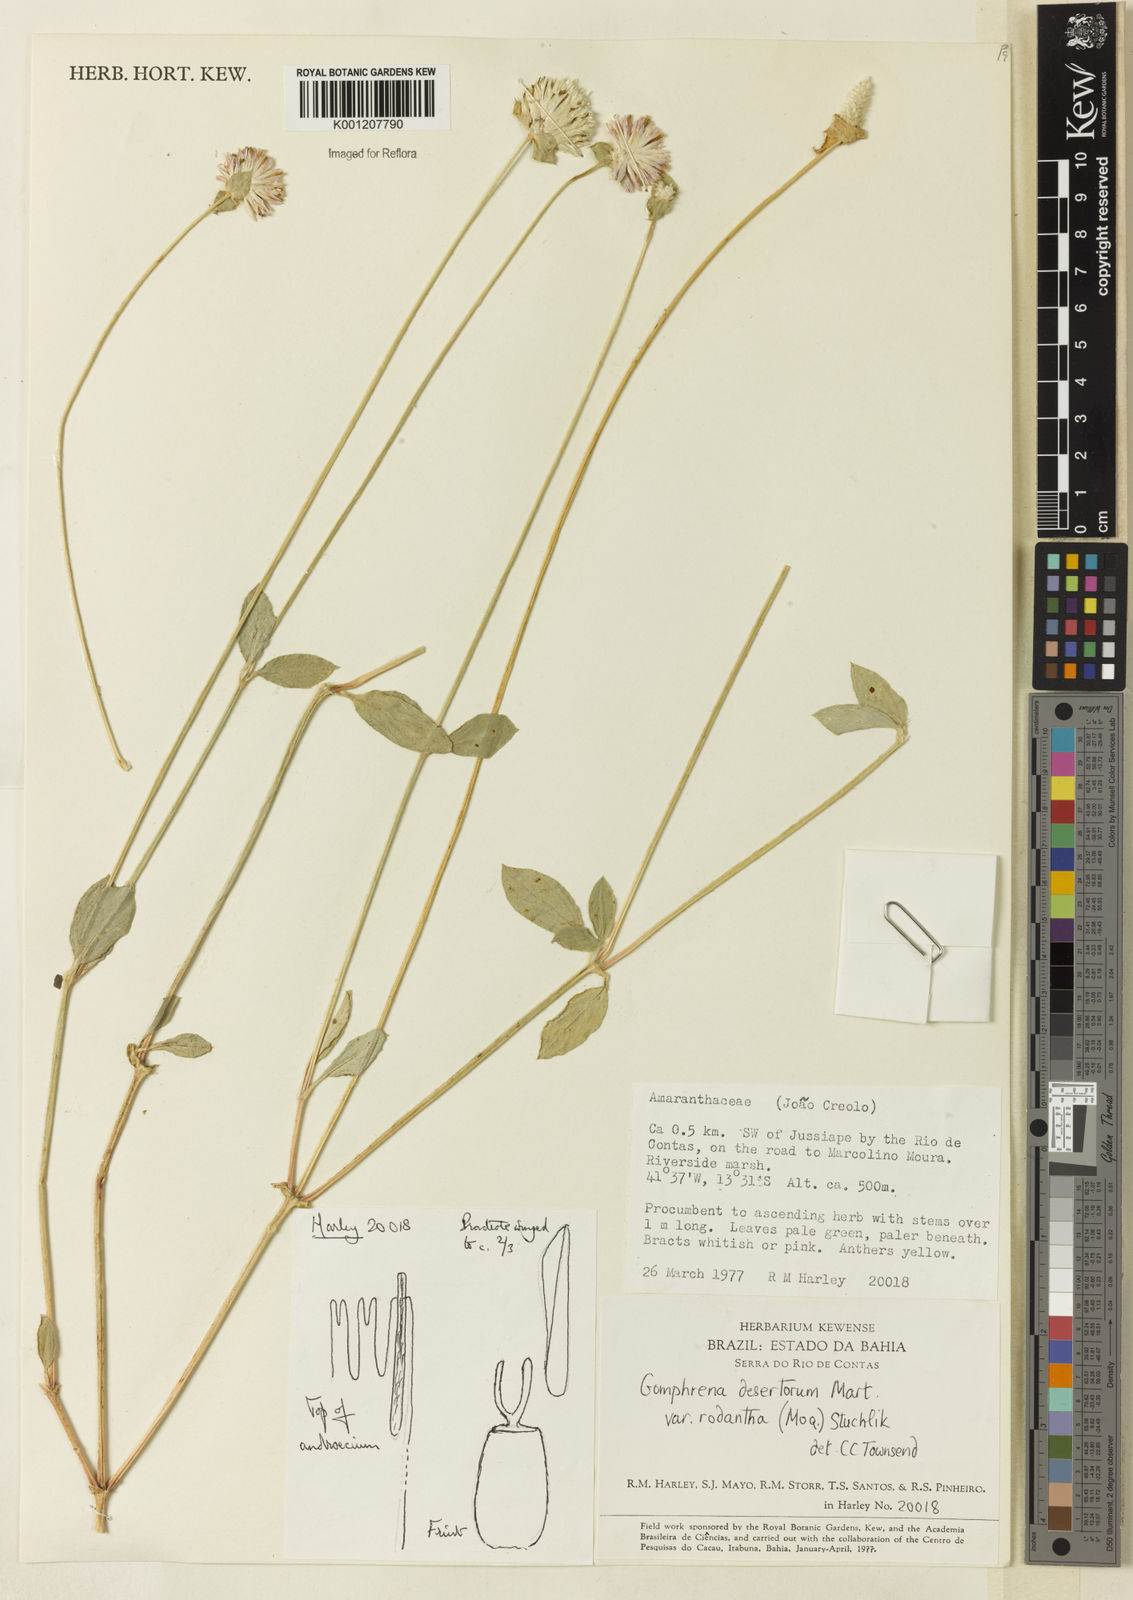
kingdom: Plantae
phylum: Tracheophyta
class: Magnoliopsida
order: Caryophyllales
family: Amaranthaceae
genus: Gomphrena
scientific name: Gomphrena desertorum
